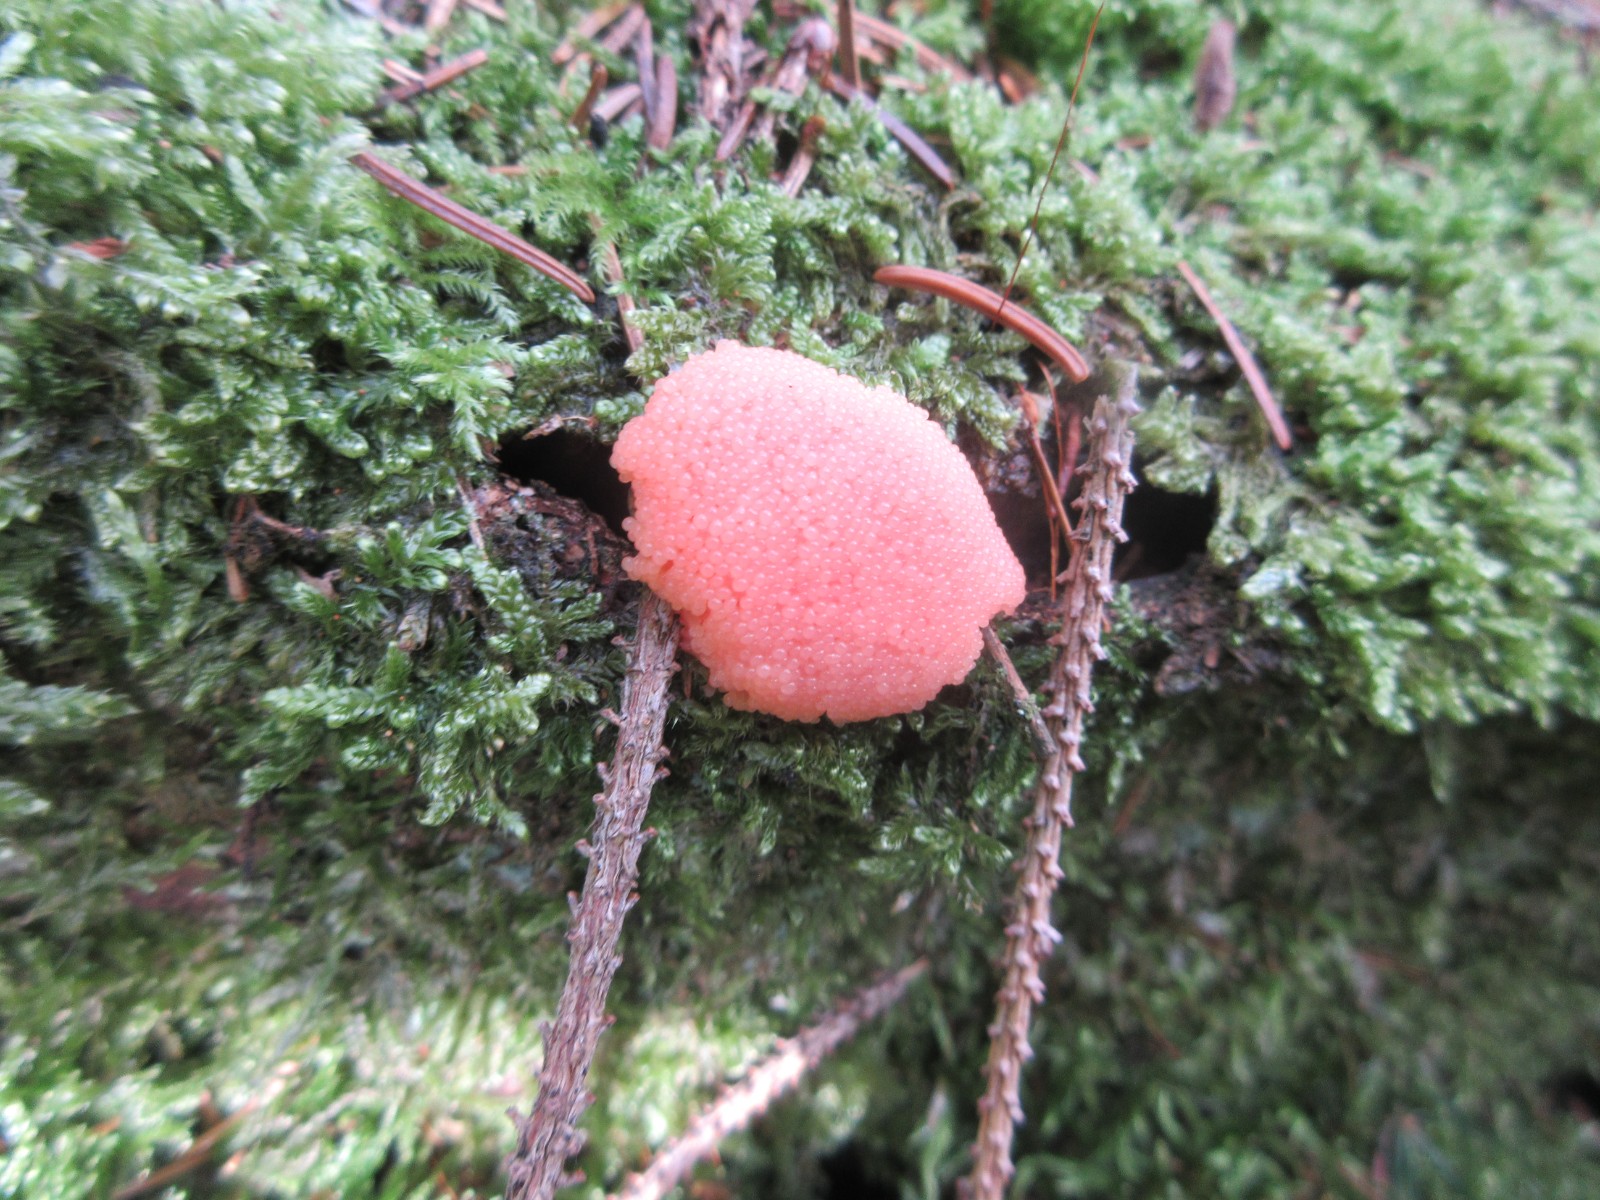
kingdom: Protozoa
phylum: Mycetozoa
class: Myxomycetes
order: Cribrariales
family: Tubiferaceae
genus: Tubifera
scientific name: Tubifera ferruginosa
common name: kanel-støvrør
